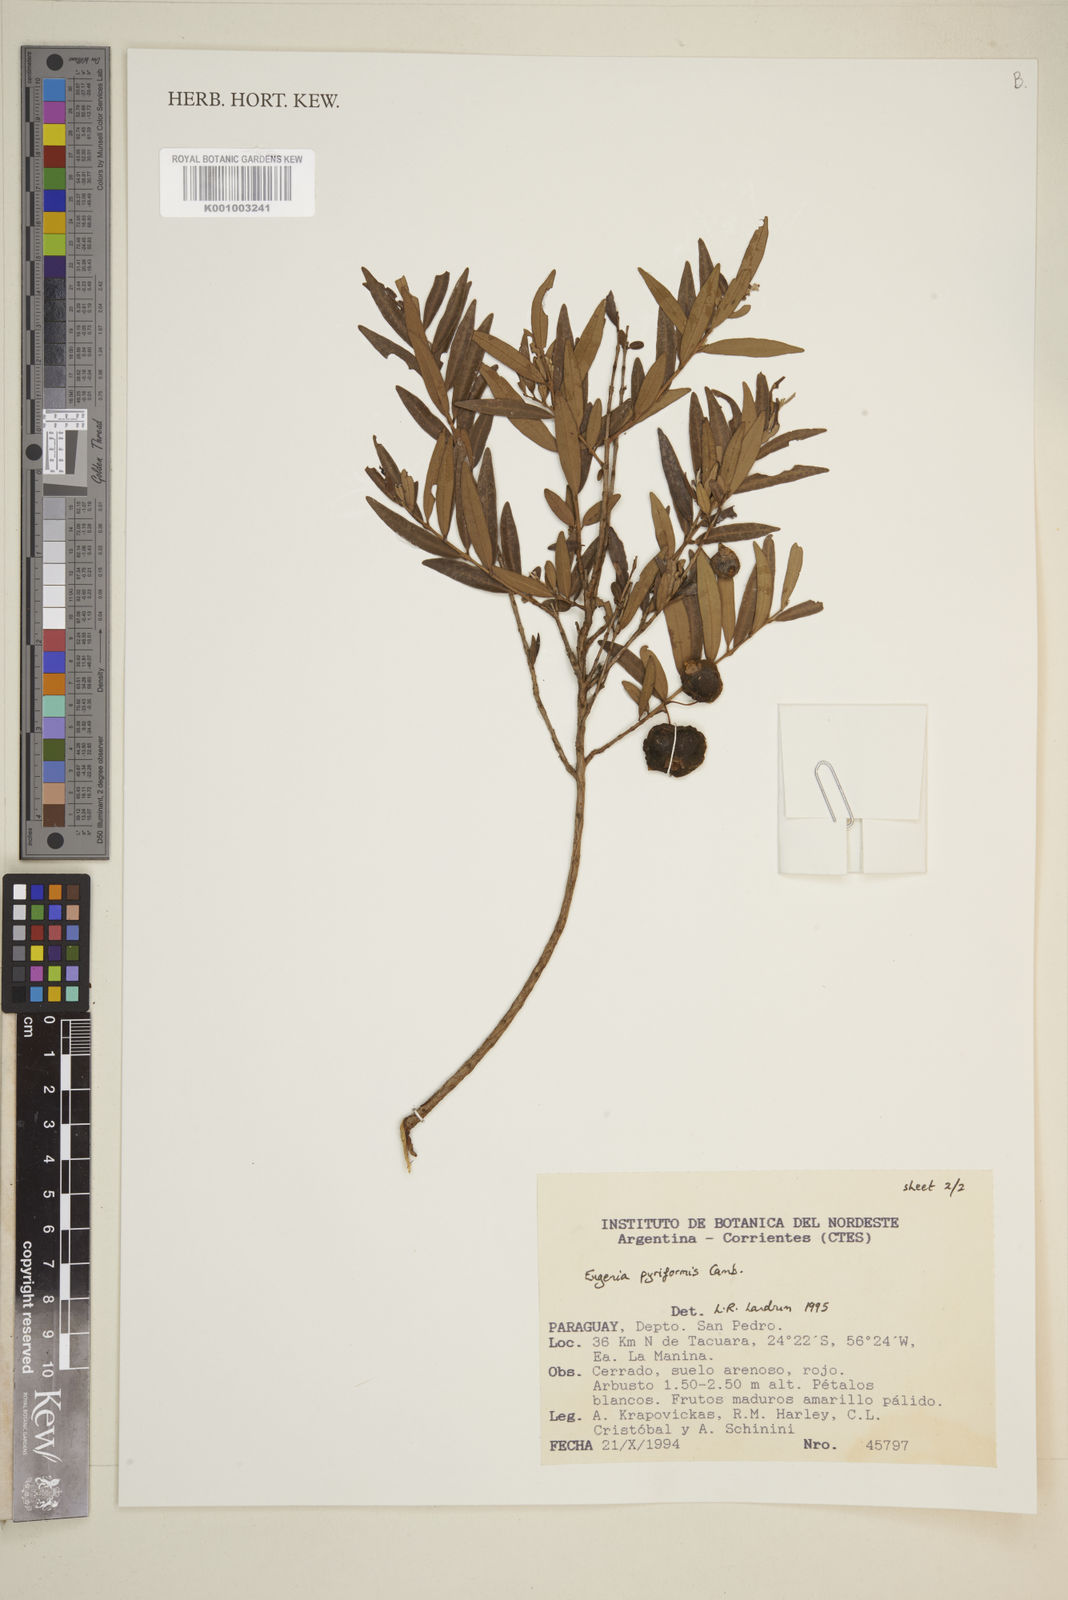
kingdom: Plantae
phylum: Tracheophyta
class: Magnoliopsida
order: Myrtales
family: Myrtaceae
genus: Eugenia
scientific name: Eugenia pyriformis
